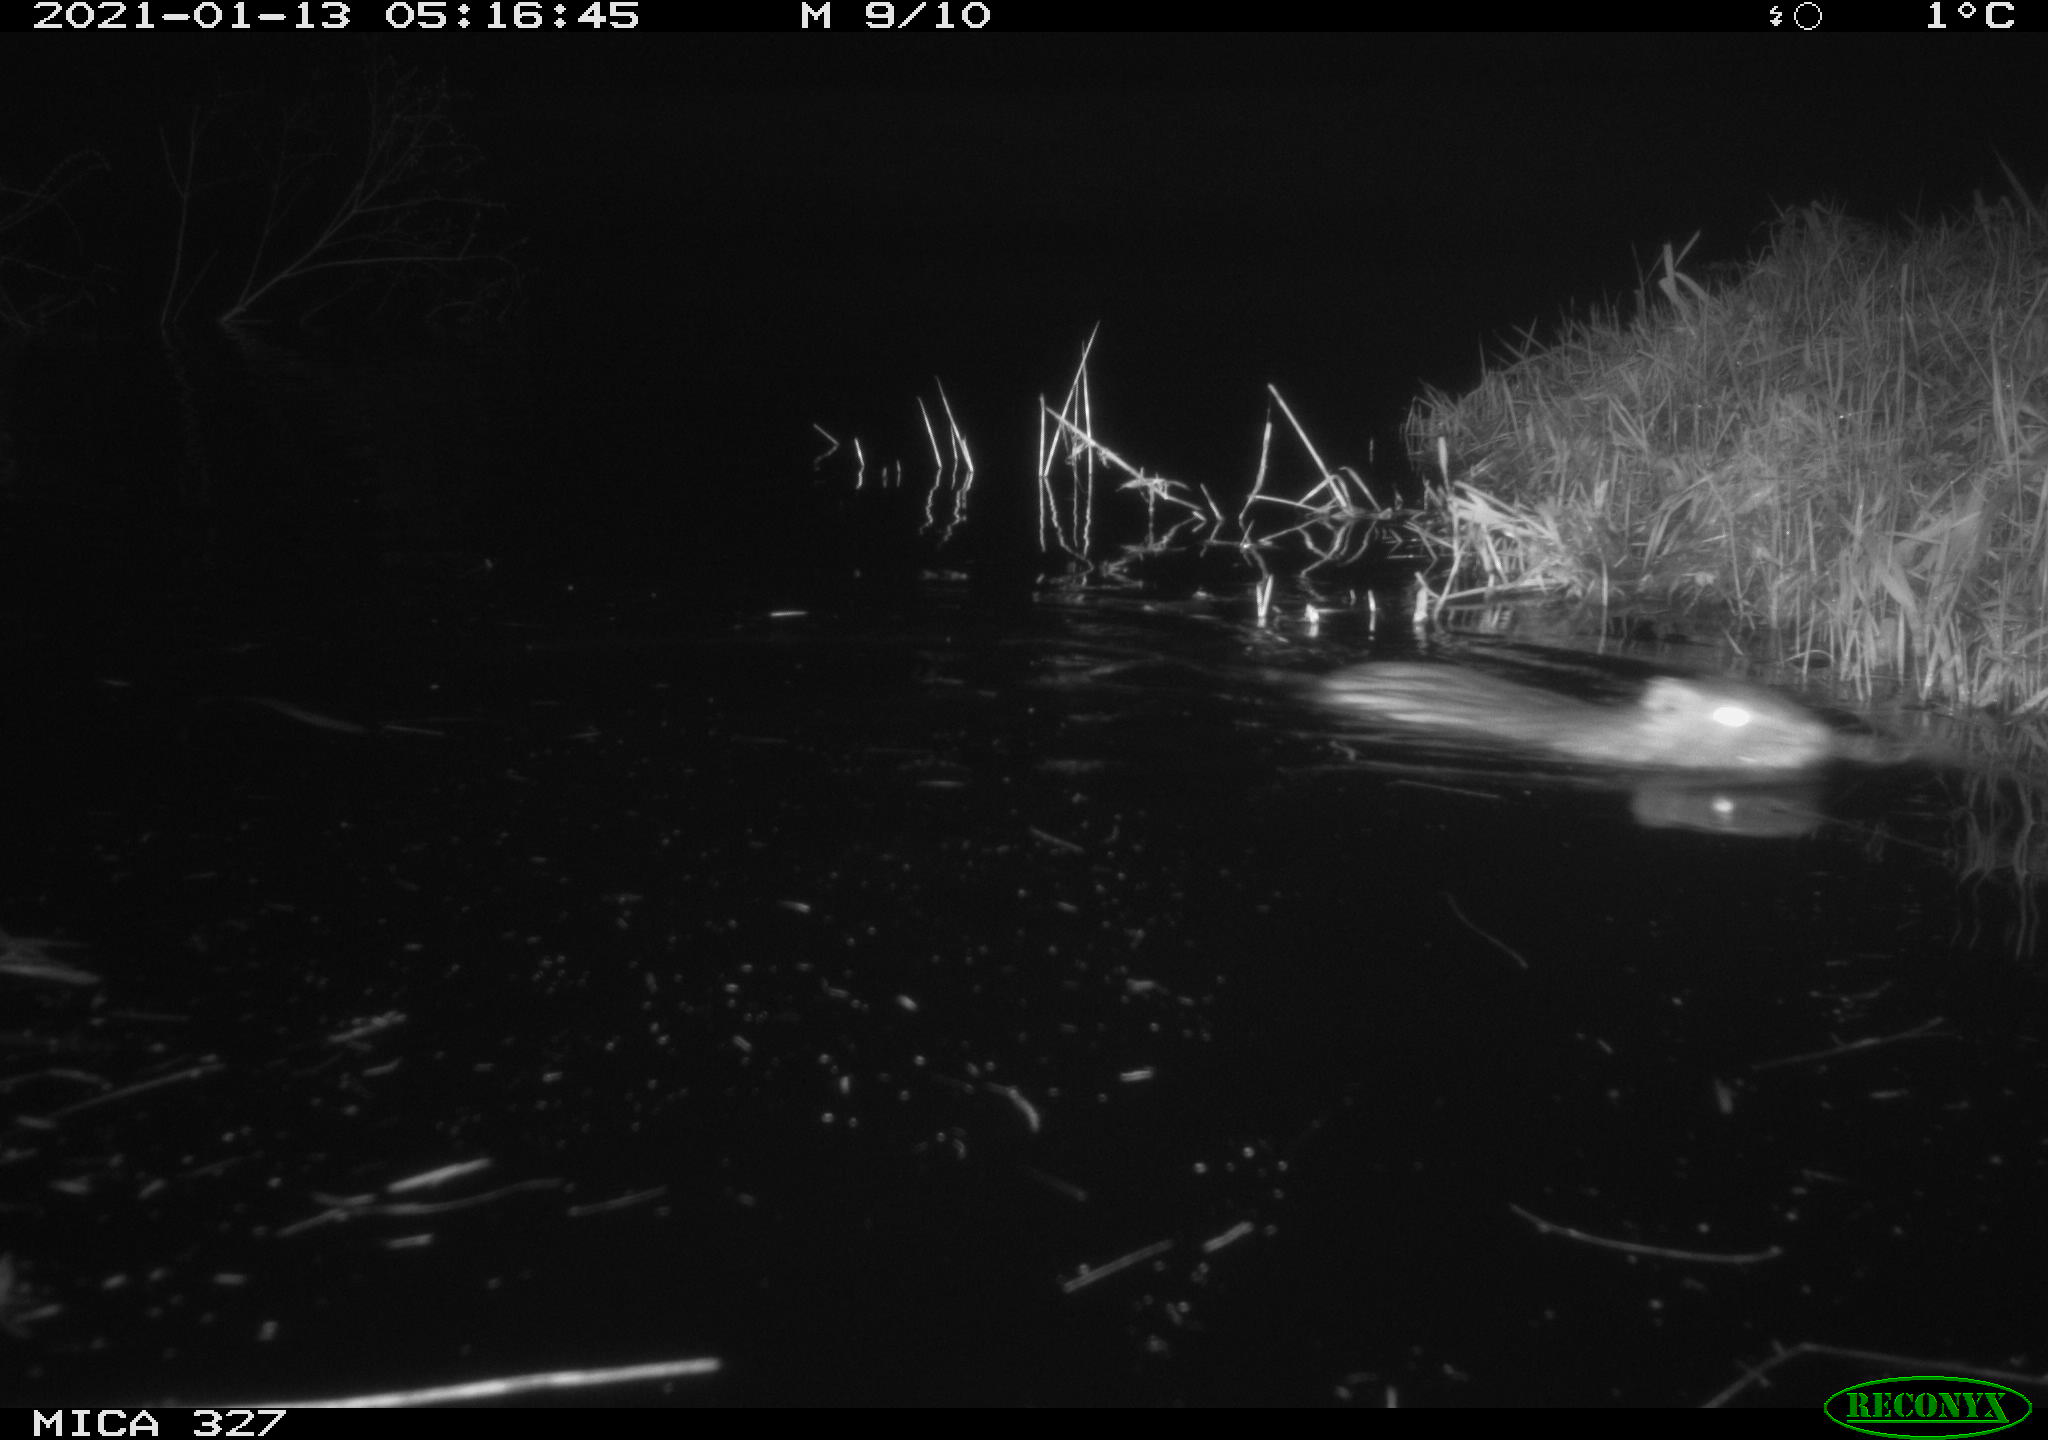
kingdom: Animalia
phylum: Chordata
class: Mammalia
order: Rodentia
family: Myocastoridae
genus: Myocastor
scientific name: Myocastor coypus
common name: Coypu
